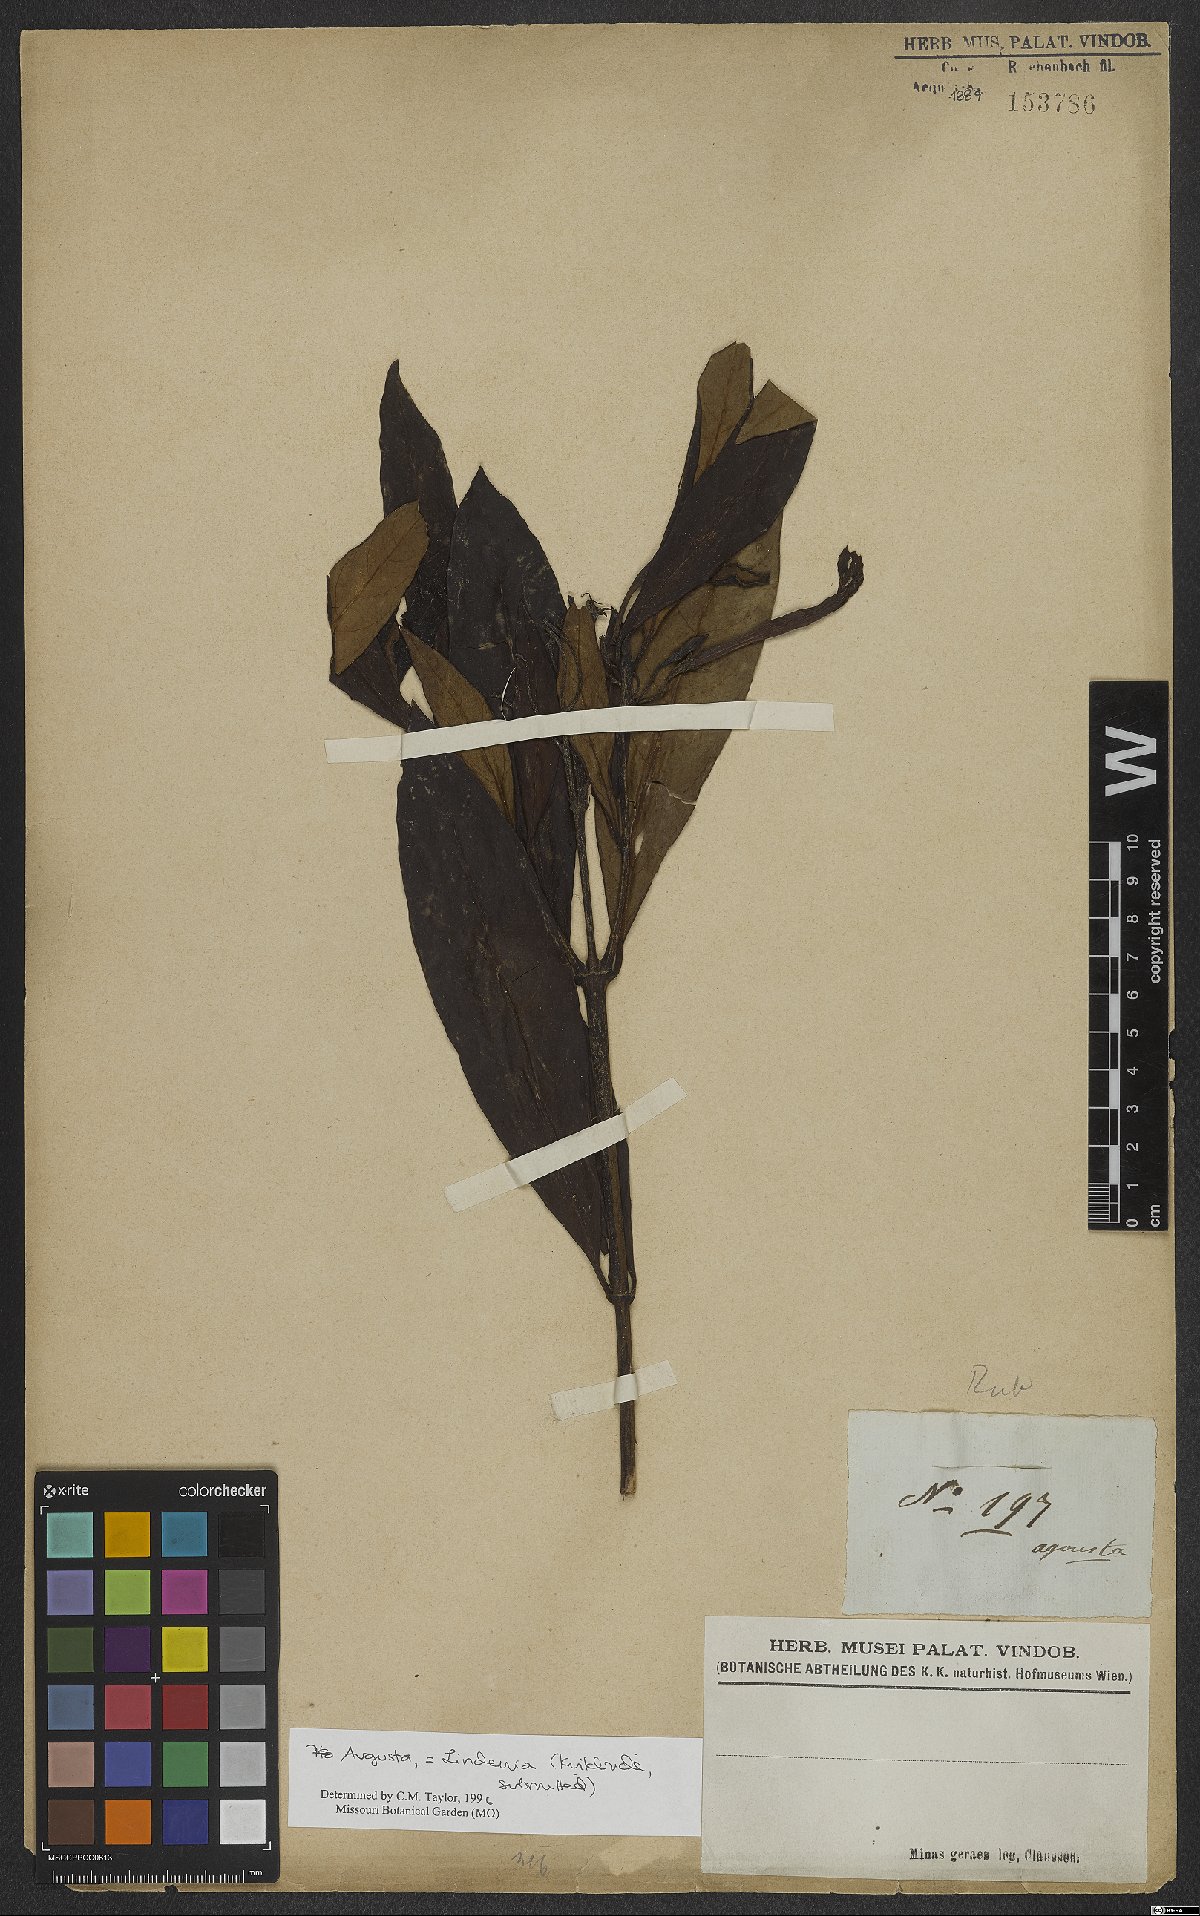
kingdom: Animalia
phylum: Arthropoda
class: Insecta
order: Odonata
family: Gomphidae
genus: Lindenia
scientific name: Lindenia
